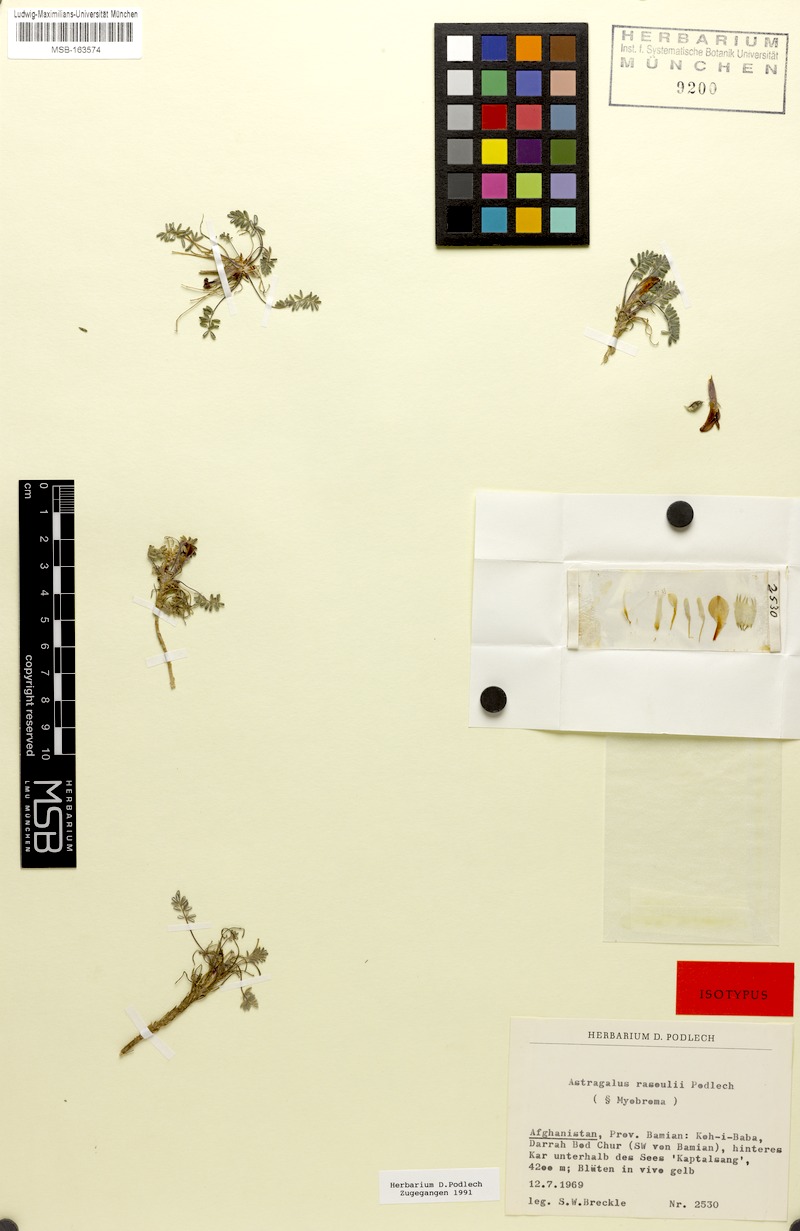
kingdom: Plantae
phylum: Tracheophyta
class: Magnoliopsida
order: Fabales
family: Fabaceae
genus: Astragalus
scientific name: Astragalus rassoulii
